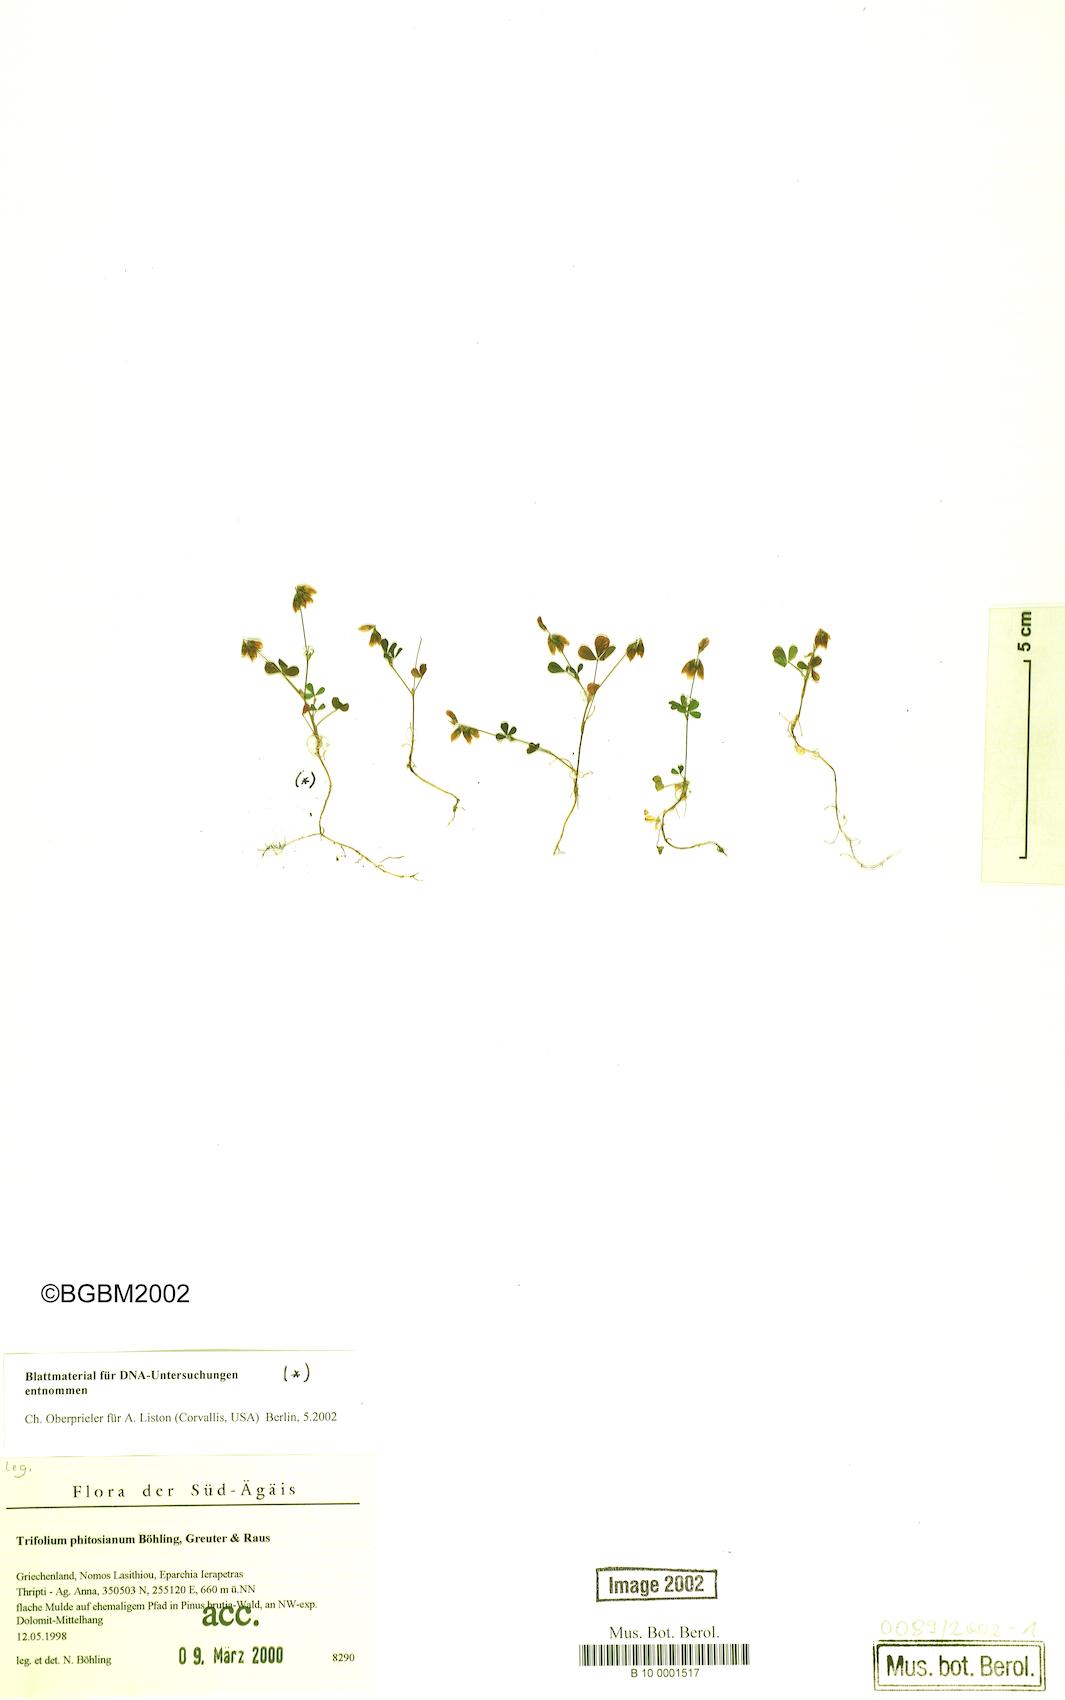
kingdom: Plantae
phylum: Tracheophyta
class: Magnoliopsida
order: Fabales
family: Fabaceae
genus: Trifolium
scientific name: Trifolium phitosianum
